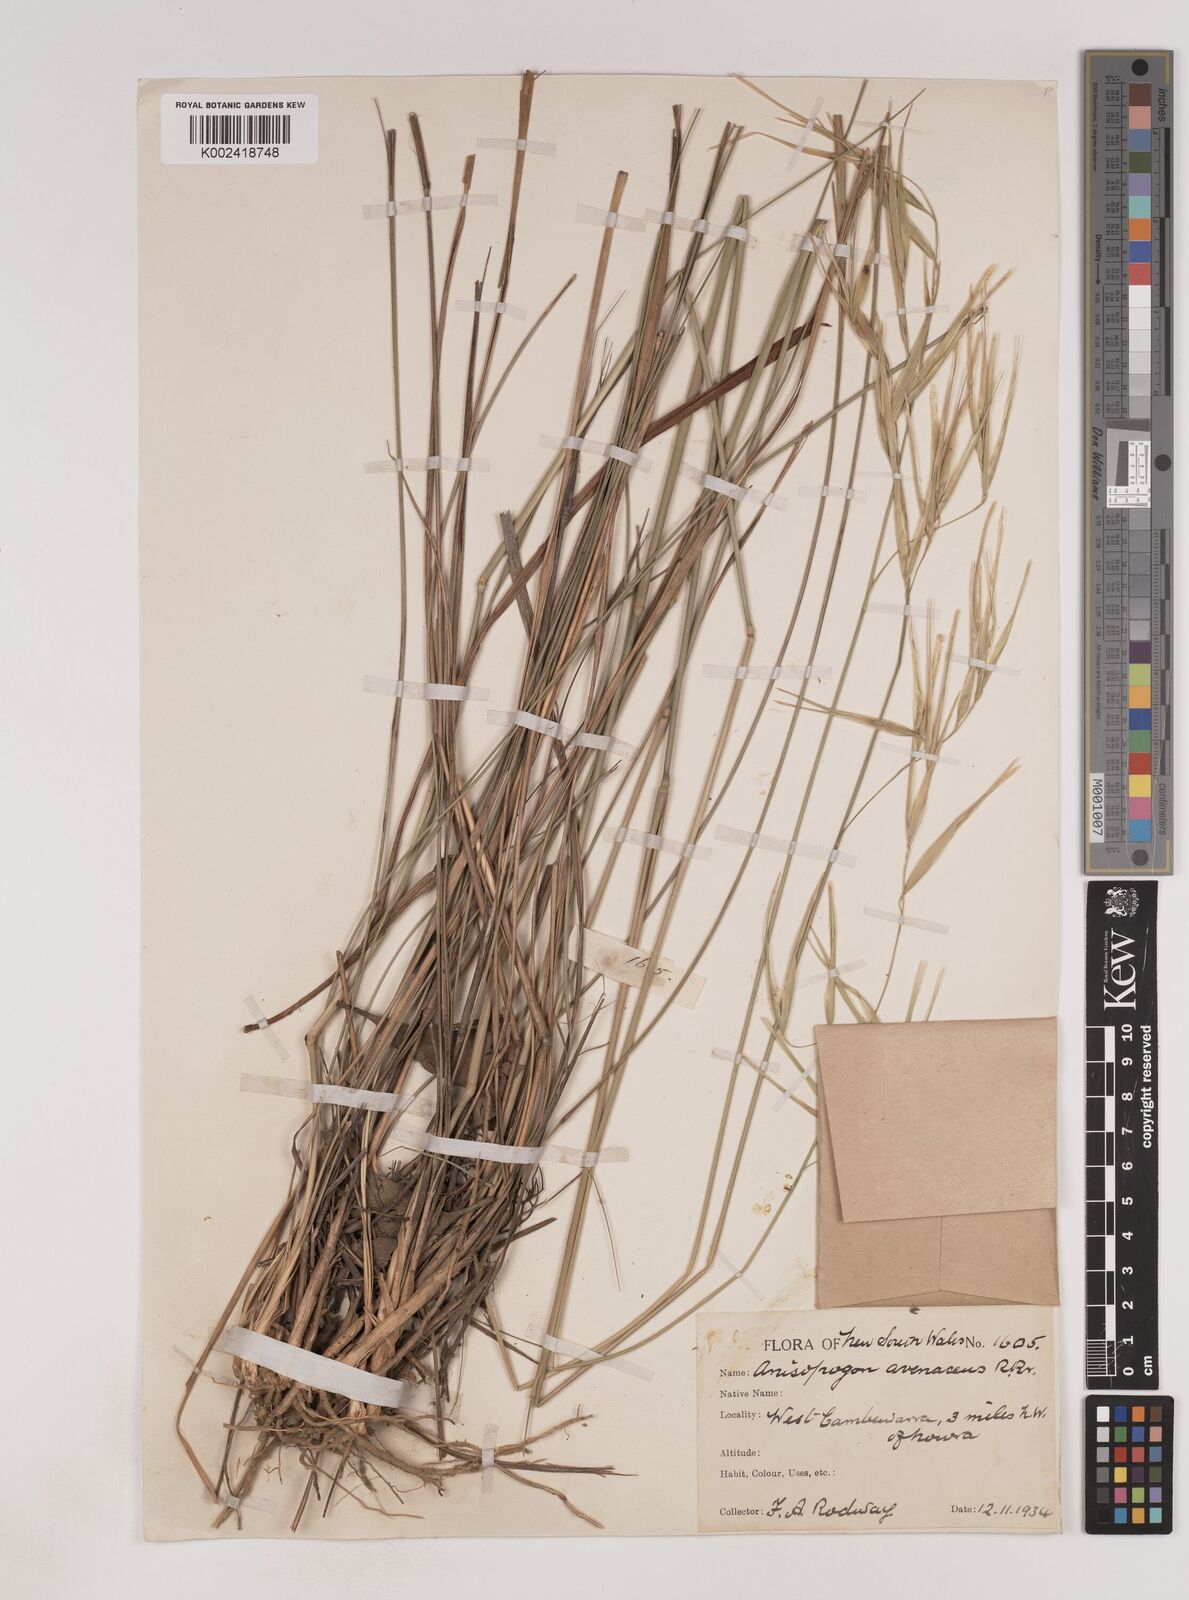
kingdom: Plantae
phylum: Tracheophyta
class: Liliopsida
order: Poales
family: Poaceae
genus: Anisopogon
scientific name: Anisopogon avenaceus
